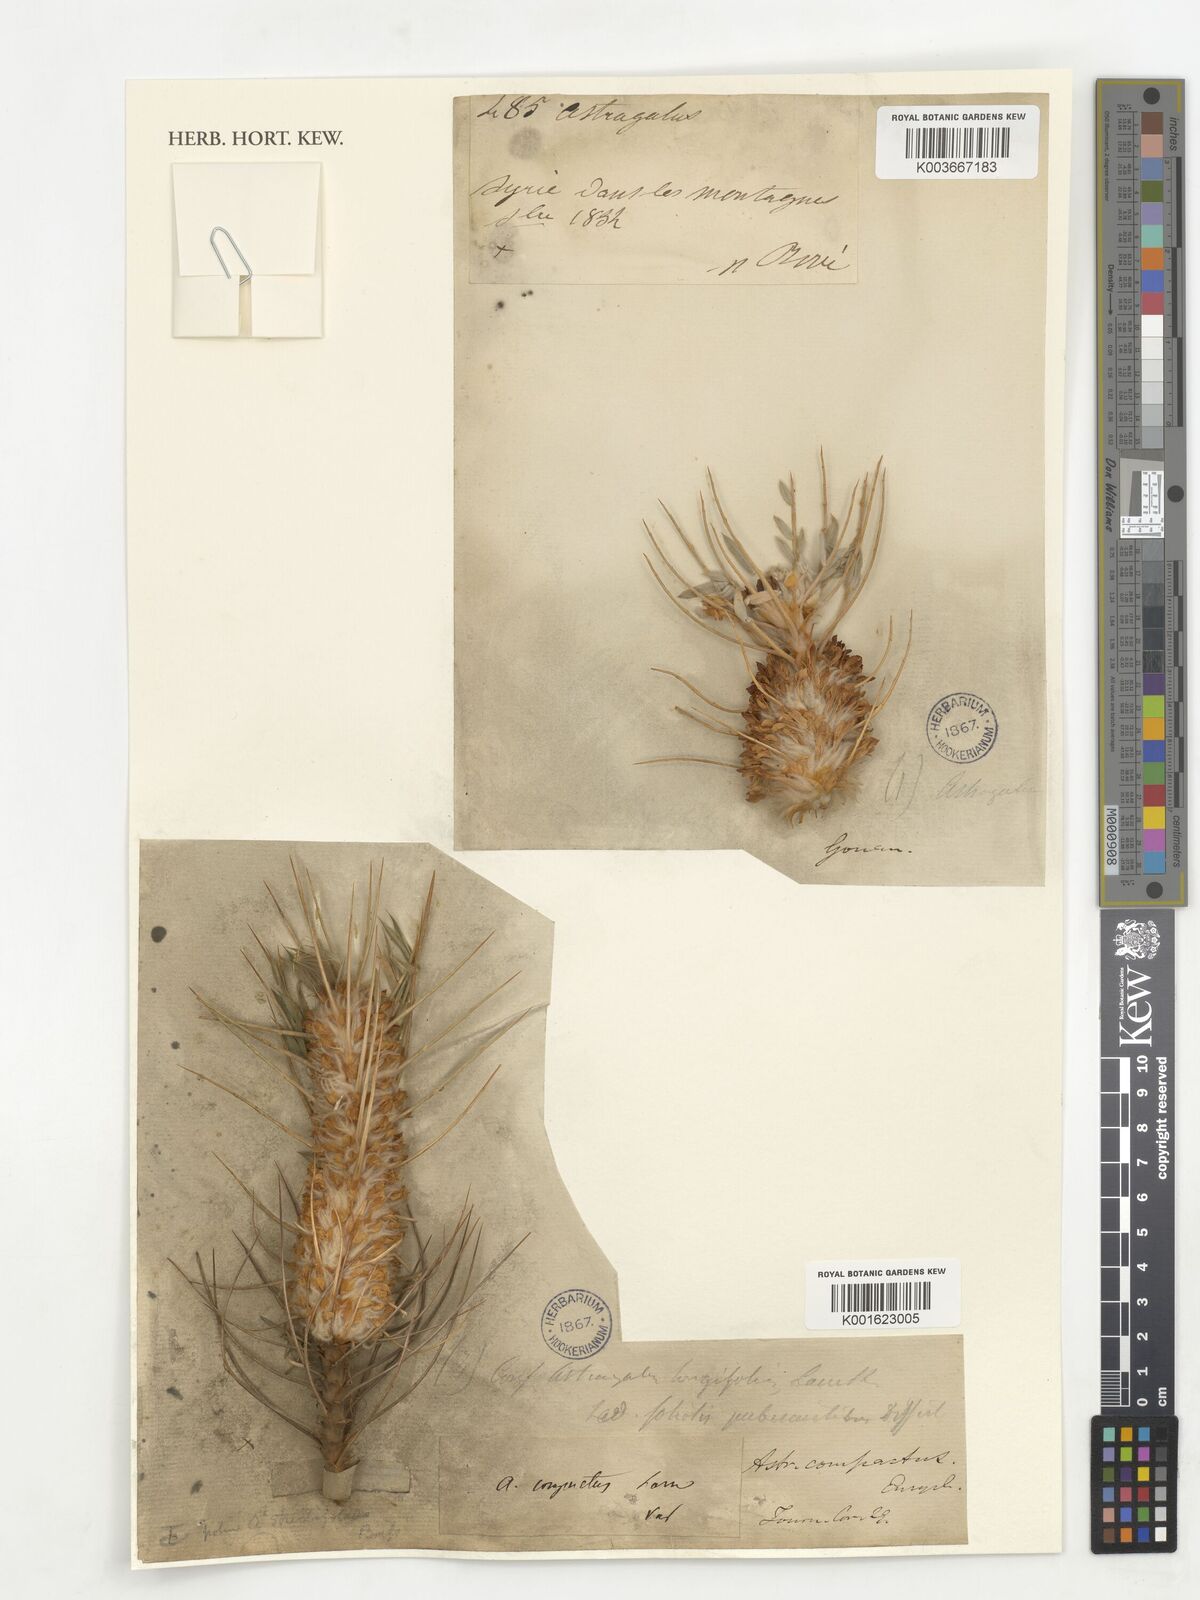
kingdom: Plantae
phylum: Tracheophyta
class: Magnoliopsida
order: Fabales
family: Fabaceae
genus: Astragalus
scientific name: Astragalus compactus
